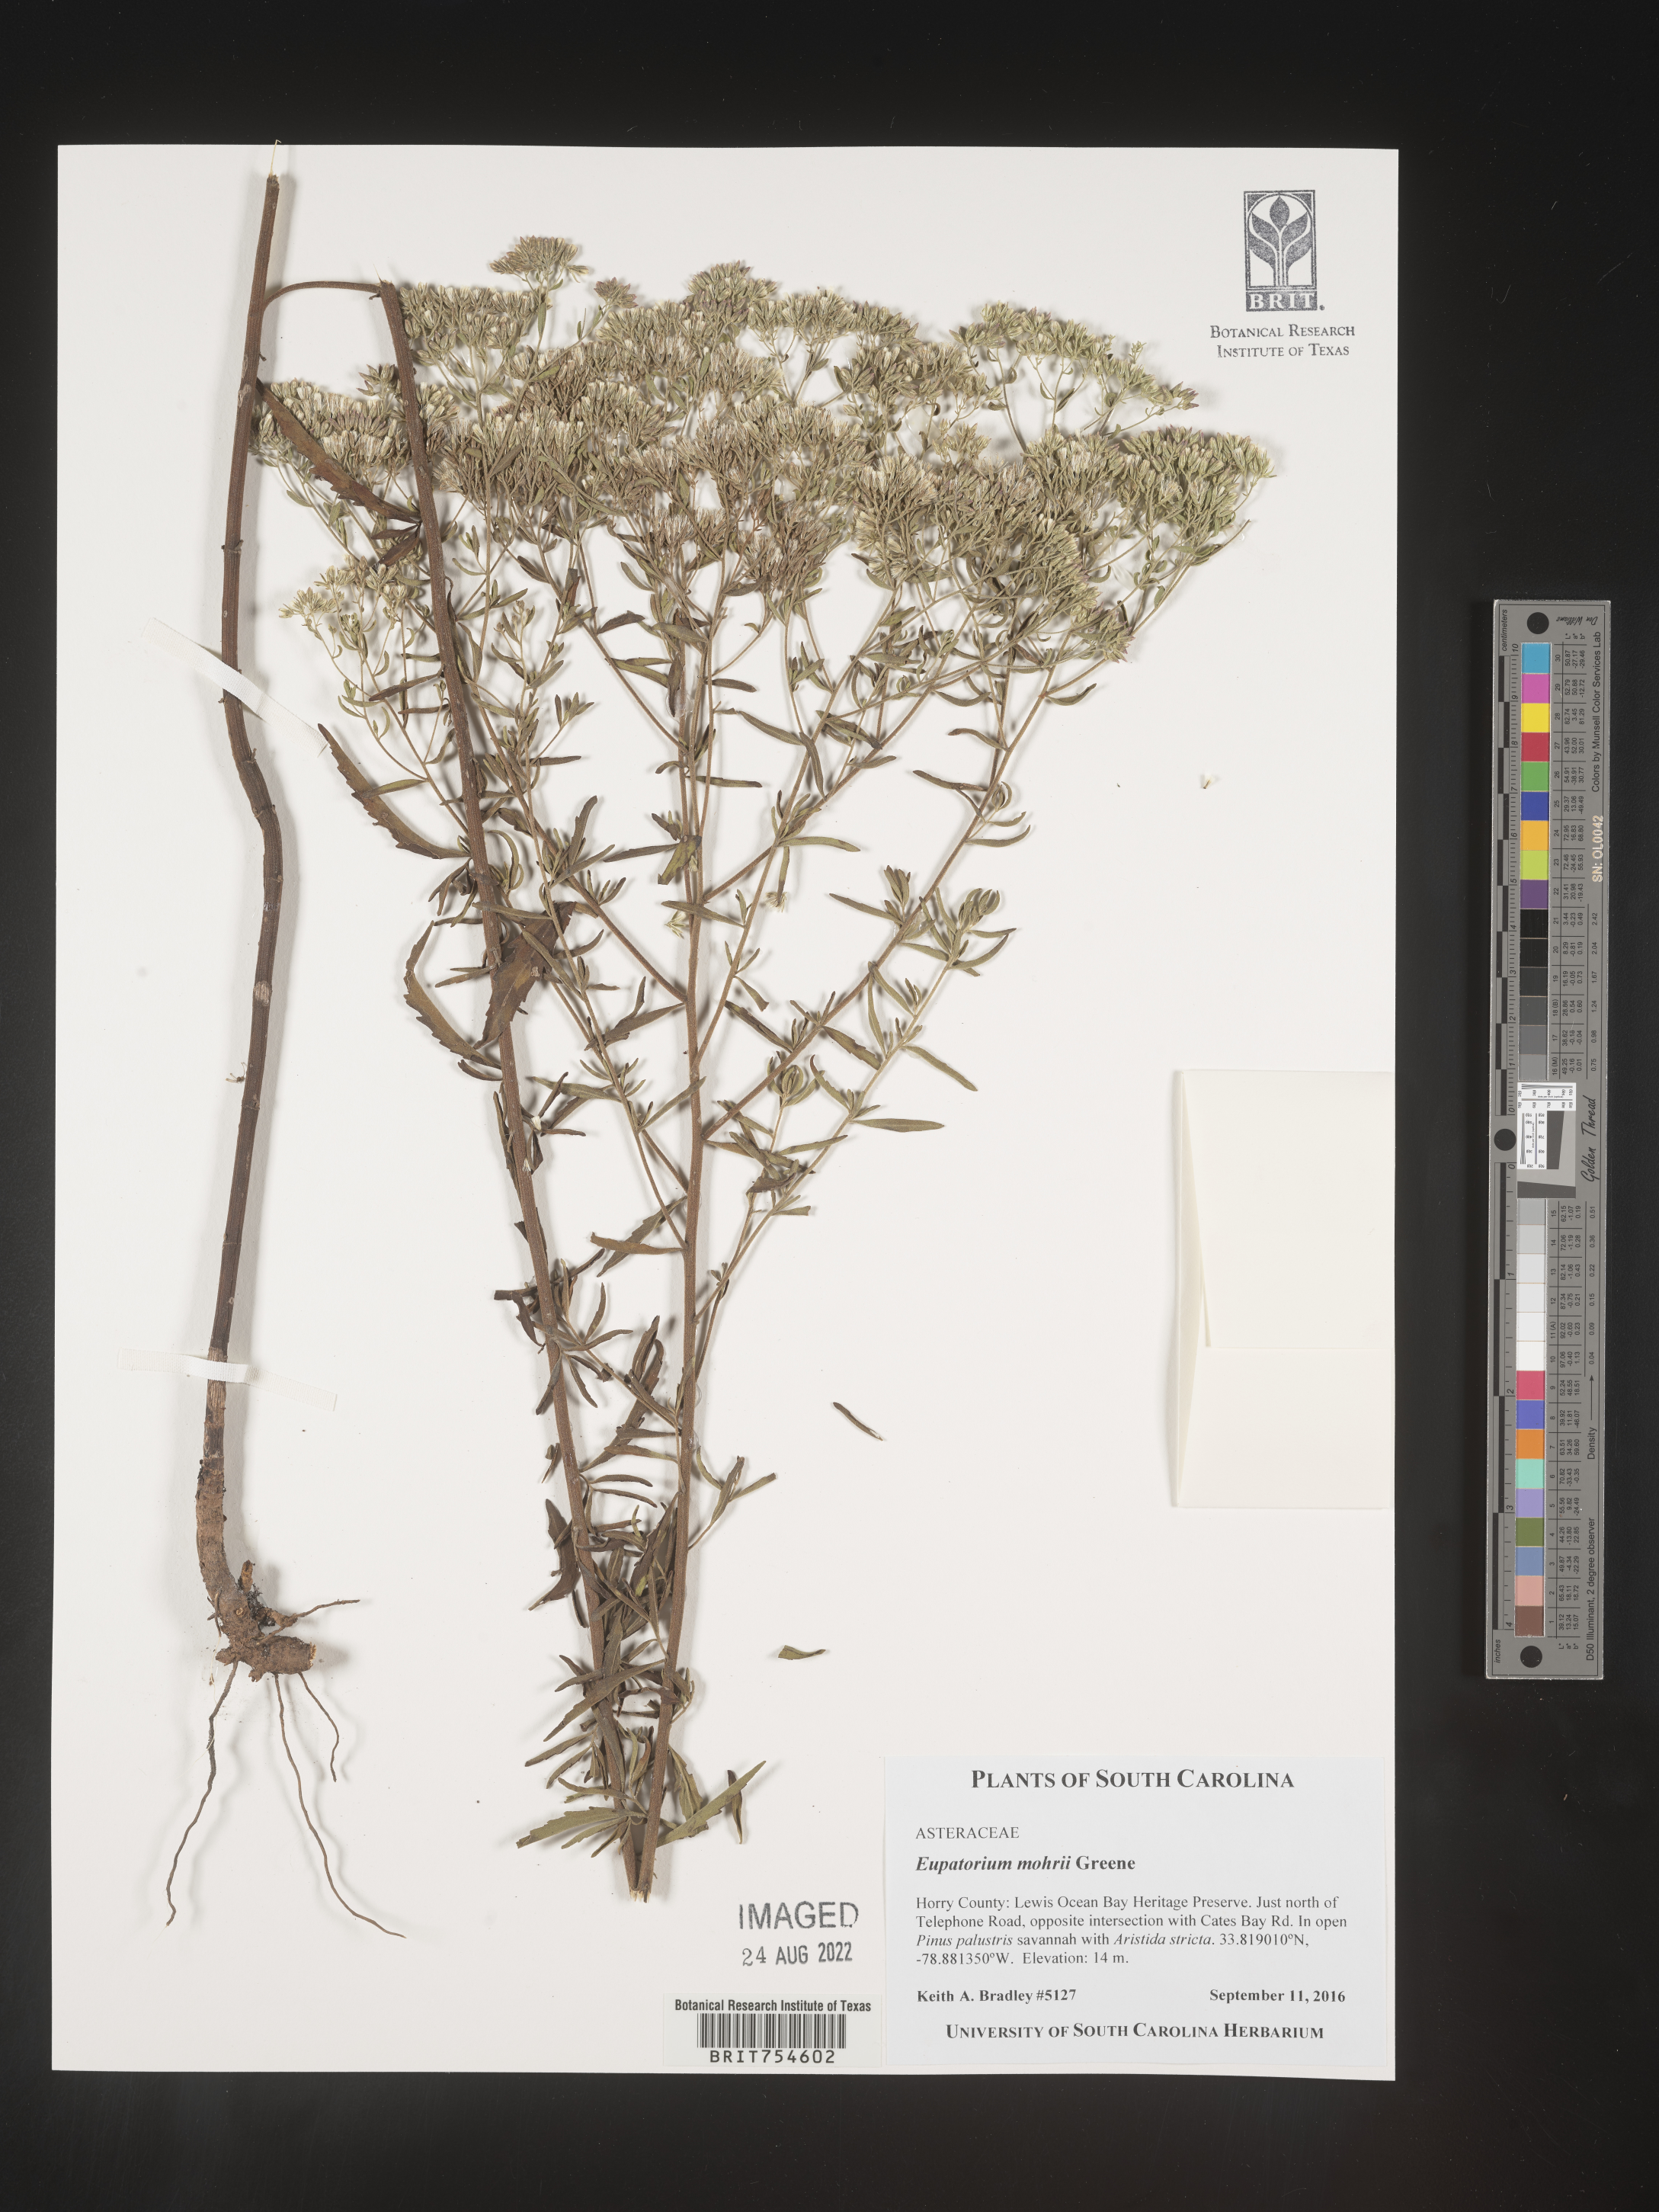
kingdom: Plantae
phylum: Tracheophyta
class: Magnoliopsida
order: Asterales
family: Asteraceae
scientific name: Asteraceae
